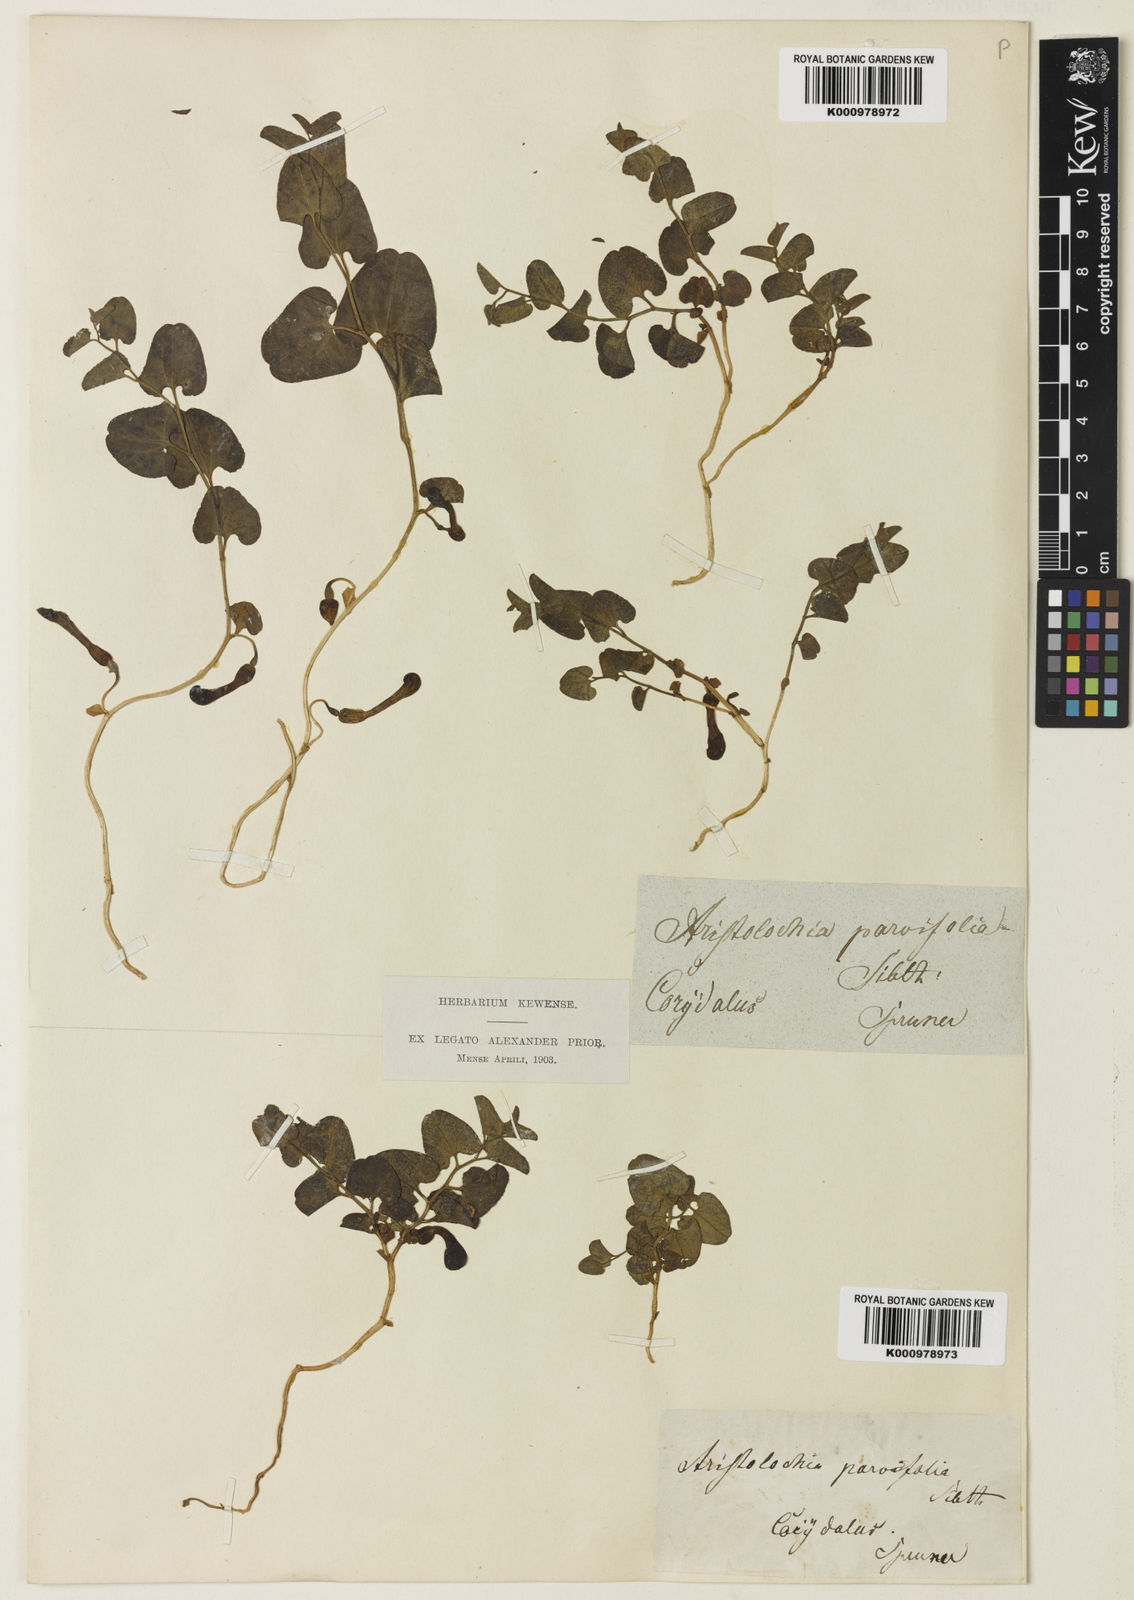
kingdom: Plantae
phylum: Tracheophyta
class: Magnoliopsida
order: Piperales
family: Aristolochiaceae
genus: Aristolochia
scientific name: Aristolochia microstoma
